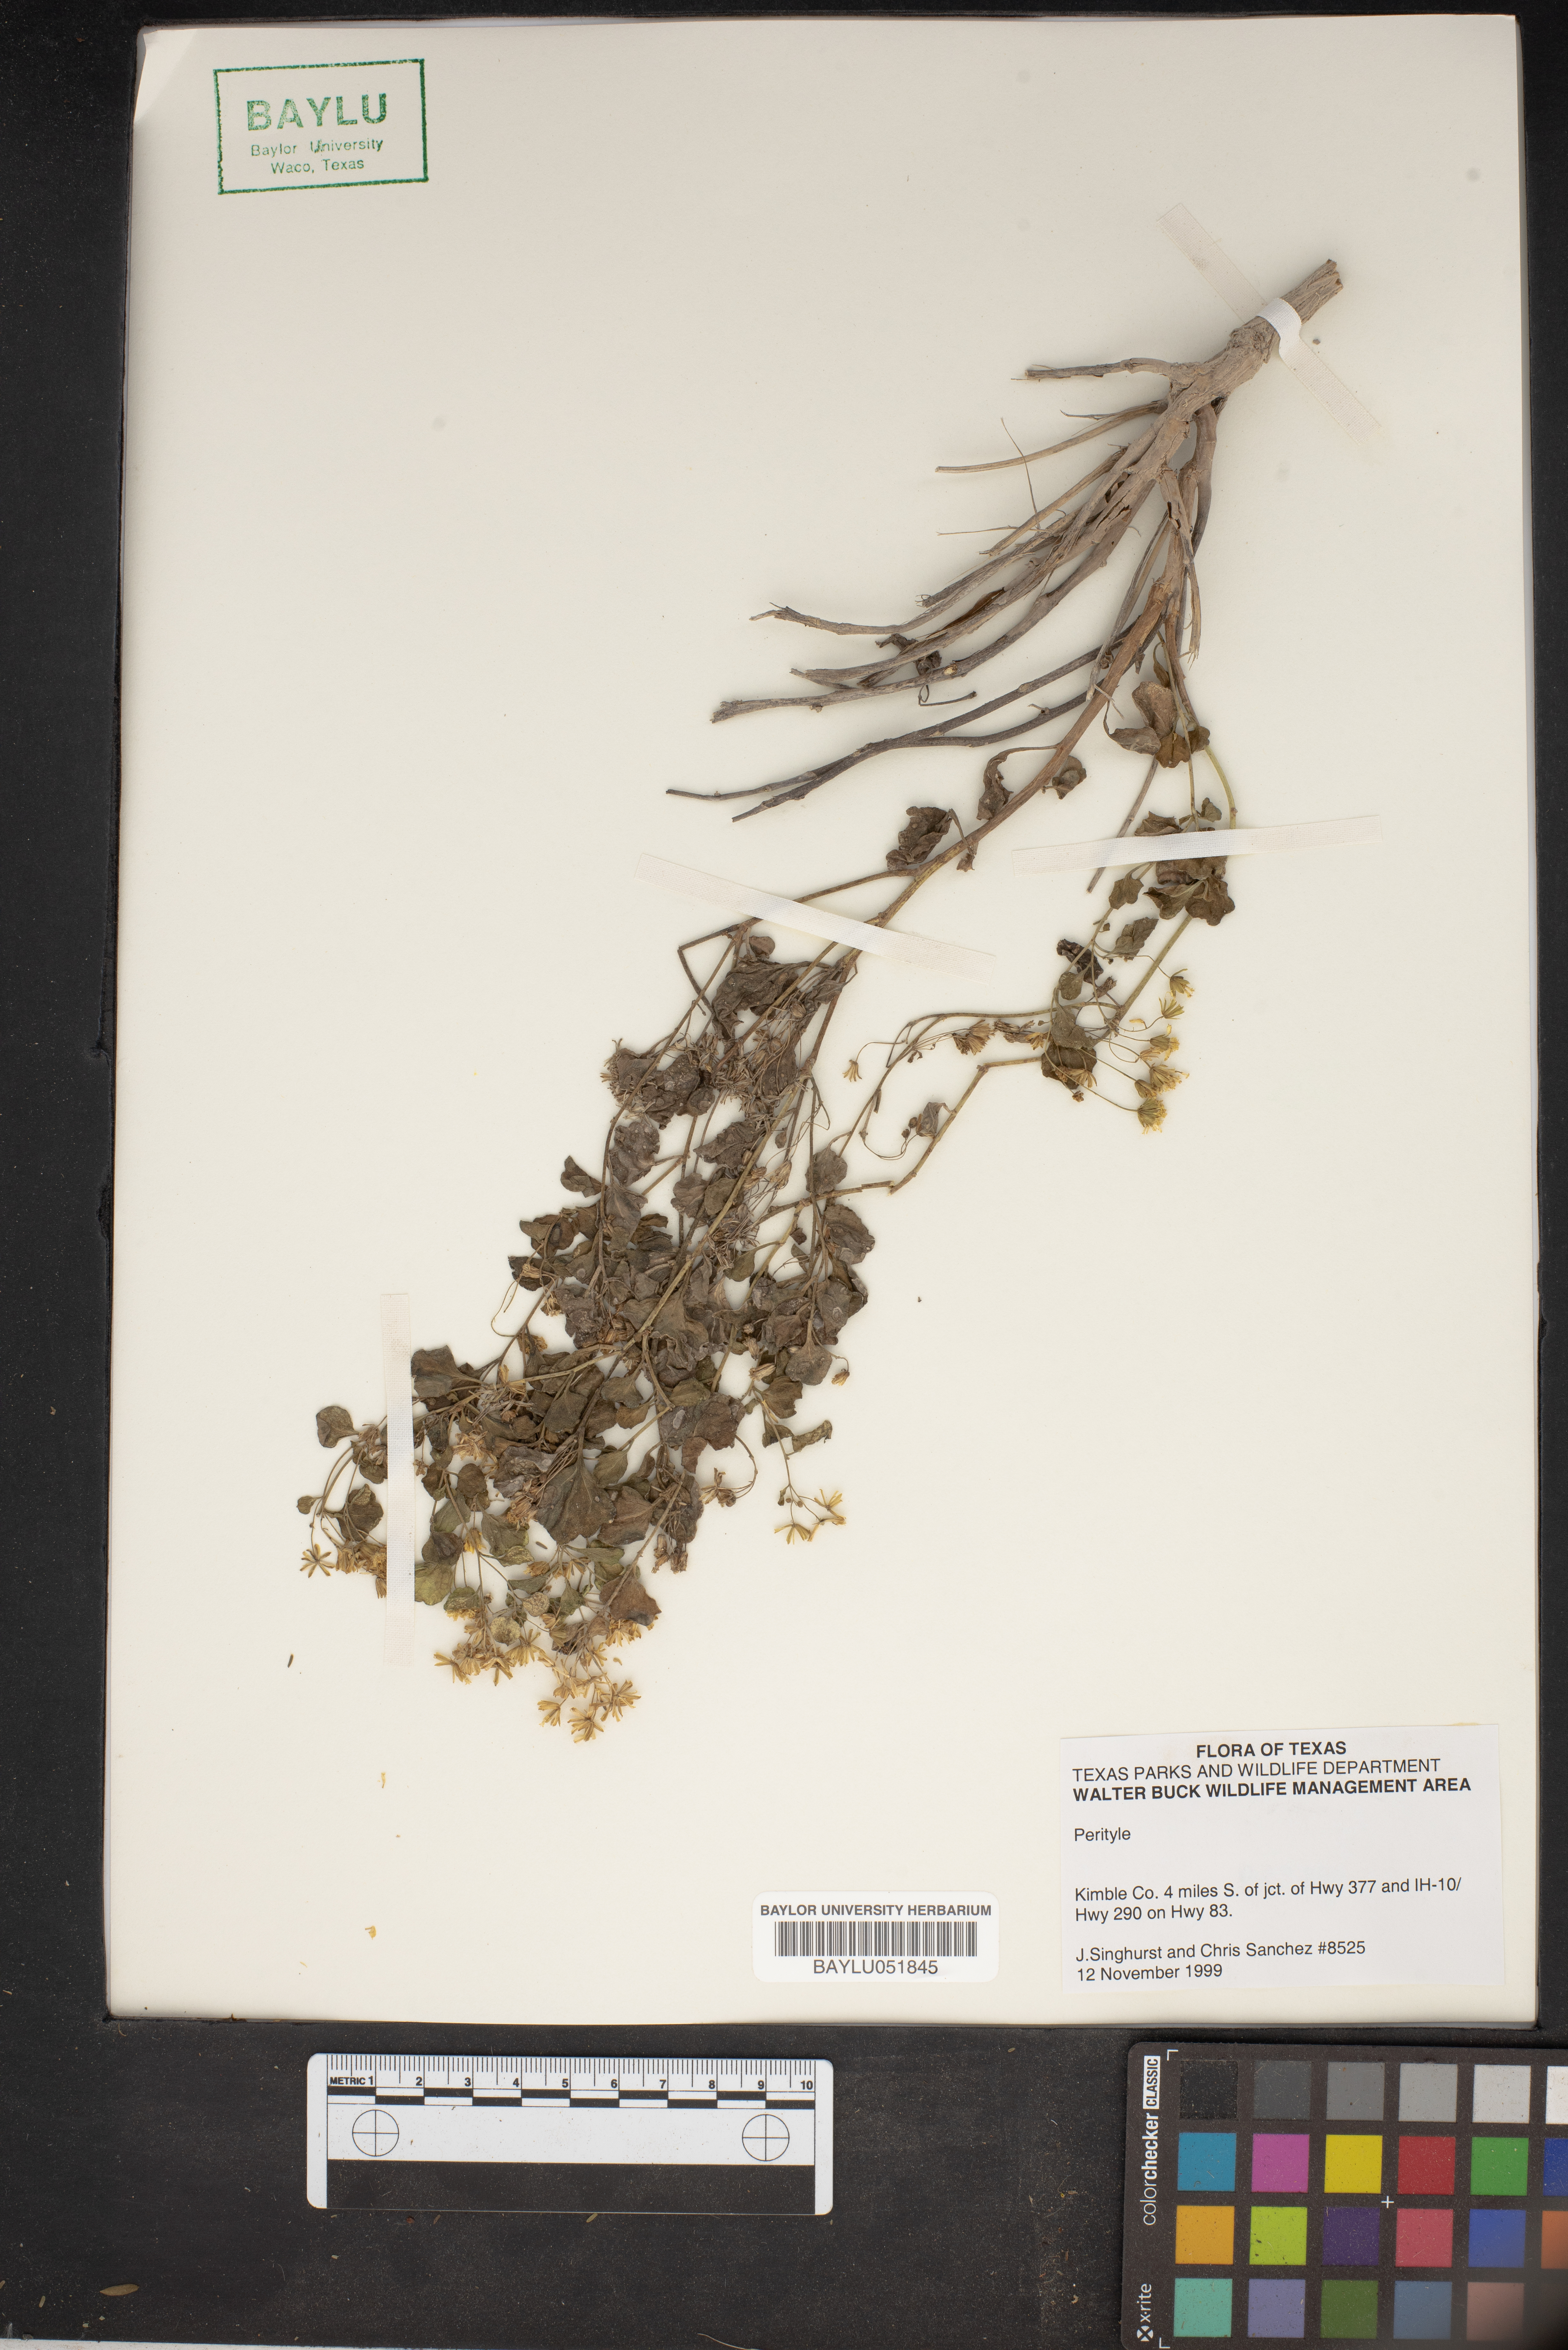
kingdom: Plantae
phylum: Tracheophyta
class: Magnoliopsida
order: Asterales
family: Asteraceae
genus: Perityle
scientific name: Perityle
